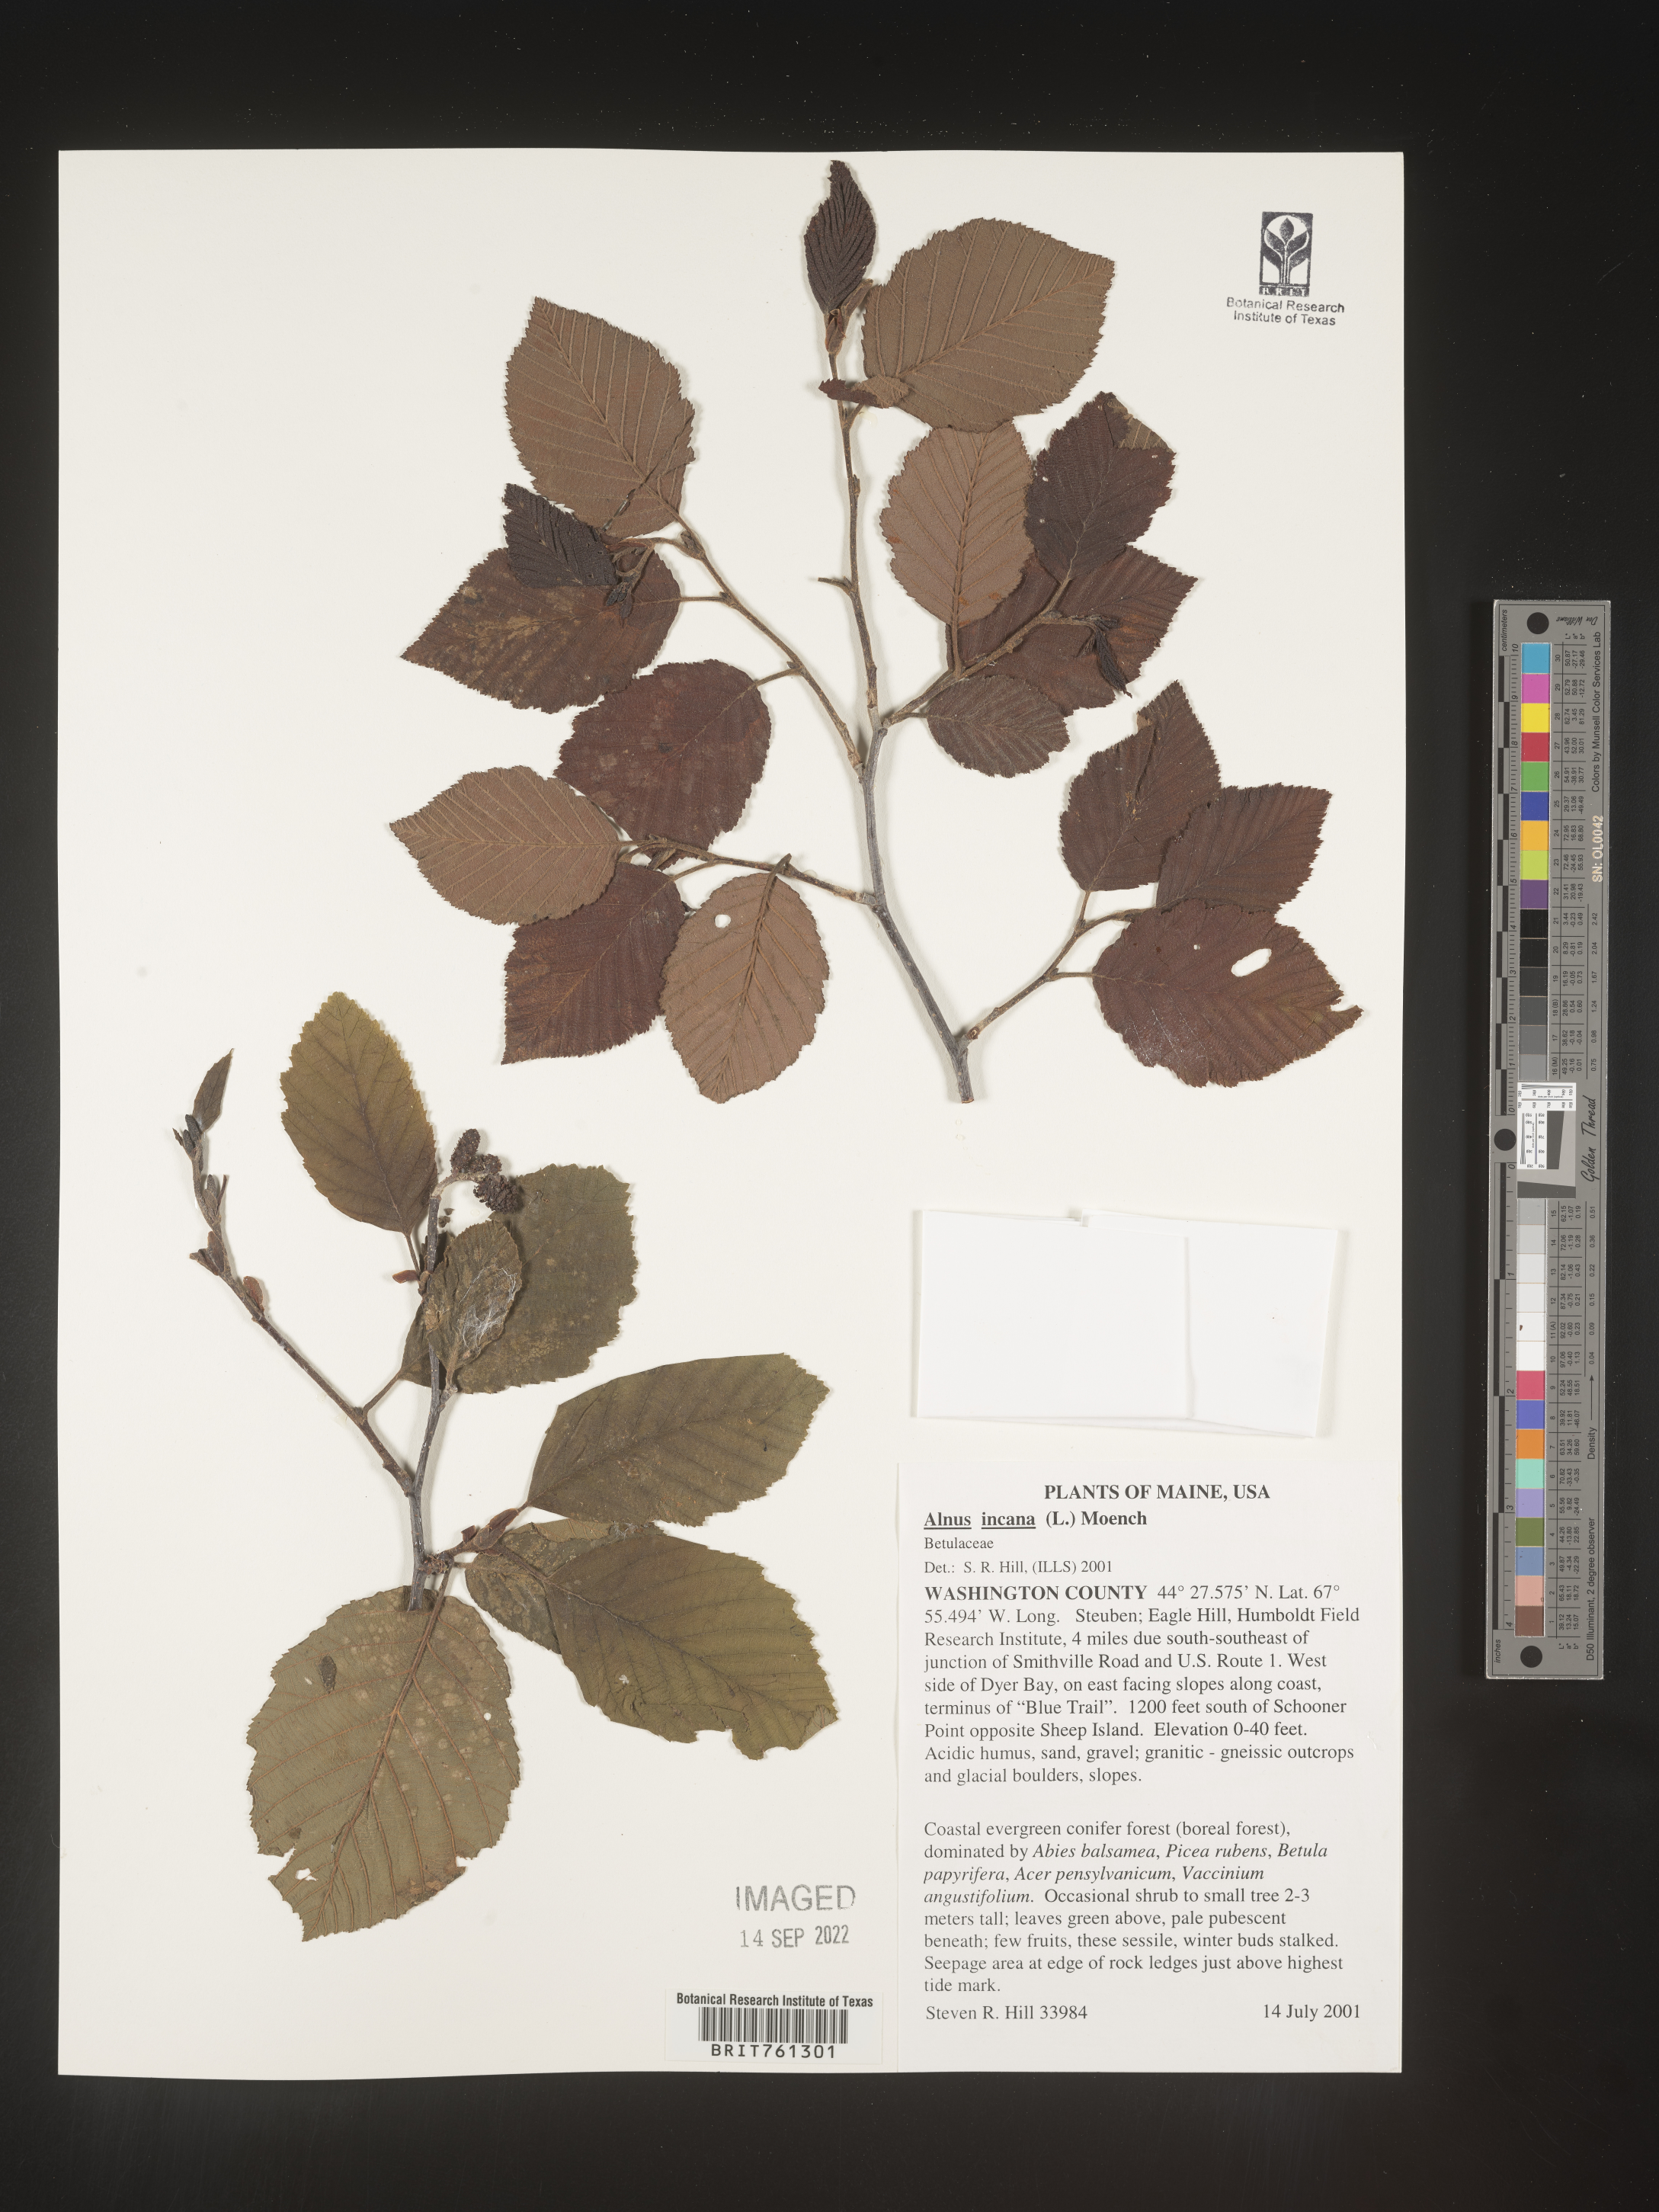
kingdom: Plantae
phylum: Tracheophyta
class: Magnoliopsida
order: Fagales
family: Betulaceae
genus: Alnus
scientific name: Alnus incana
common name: Grey alder
